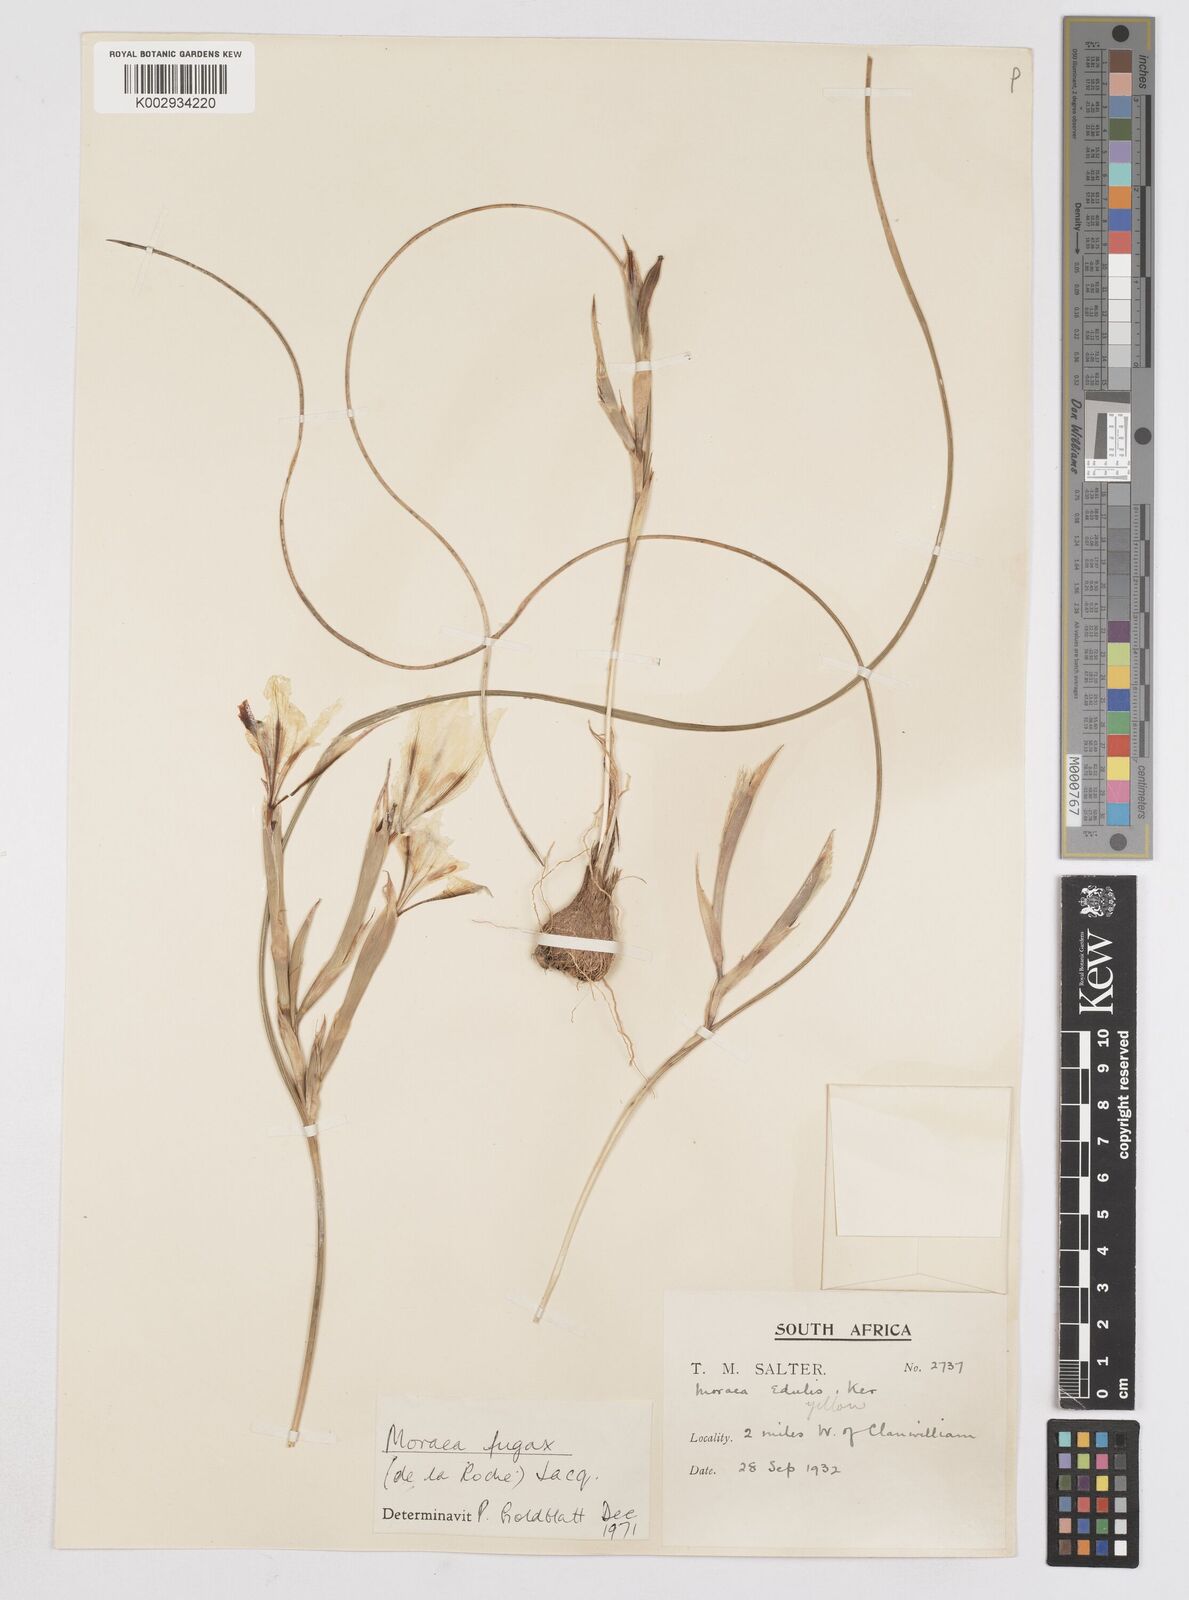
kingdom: Plantae
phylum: Tracheophyta
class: Liliopsida
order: Asparagales
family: Iridaceae
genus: Moraea
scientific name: Moraea fugax
